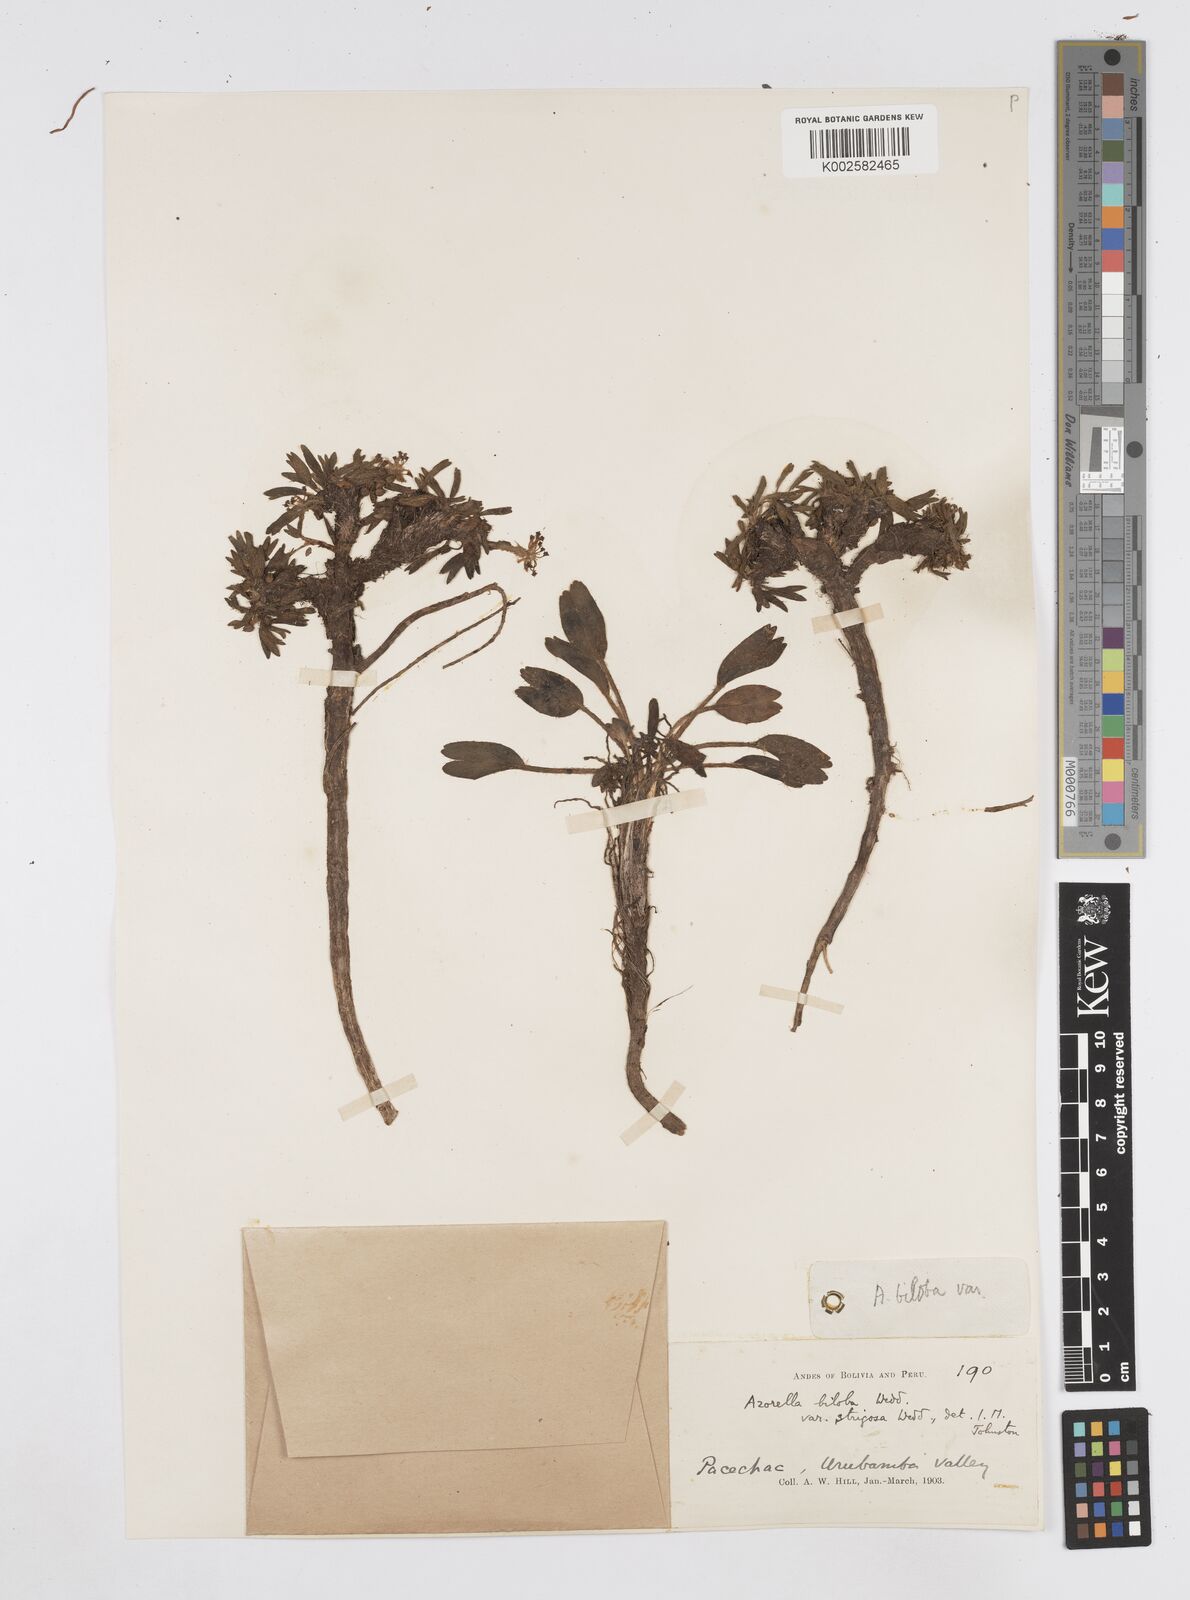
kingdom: Plantae
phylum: Tracheophyta
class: Magnoliopsida
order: Apiales
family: Apiaceae
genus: Azorella
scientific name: Azorella biloba
